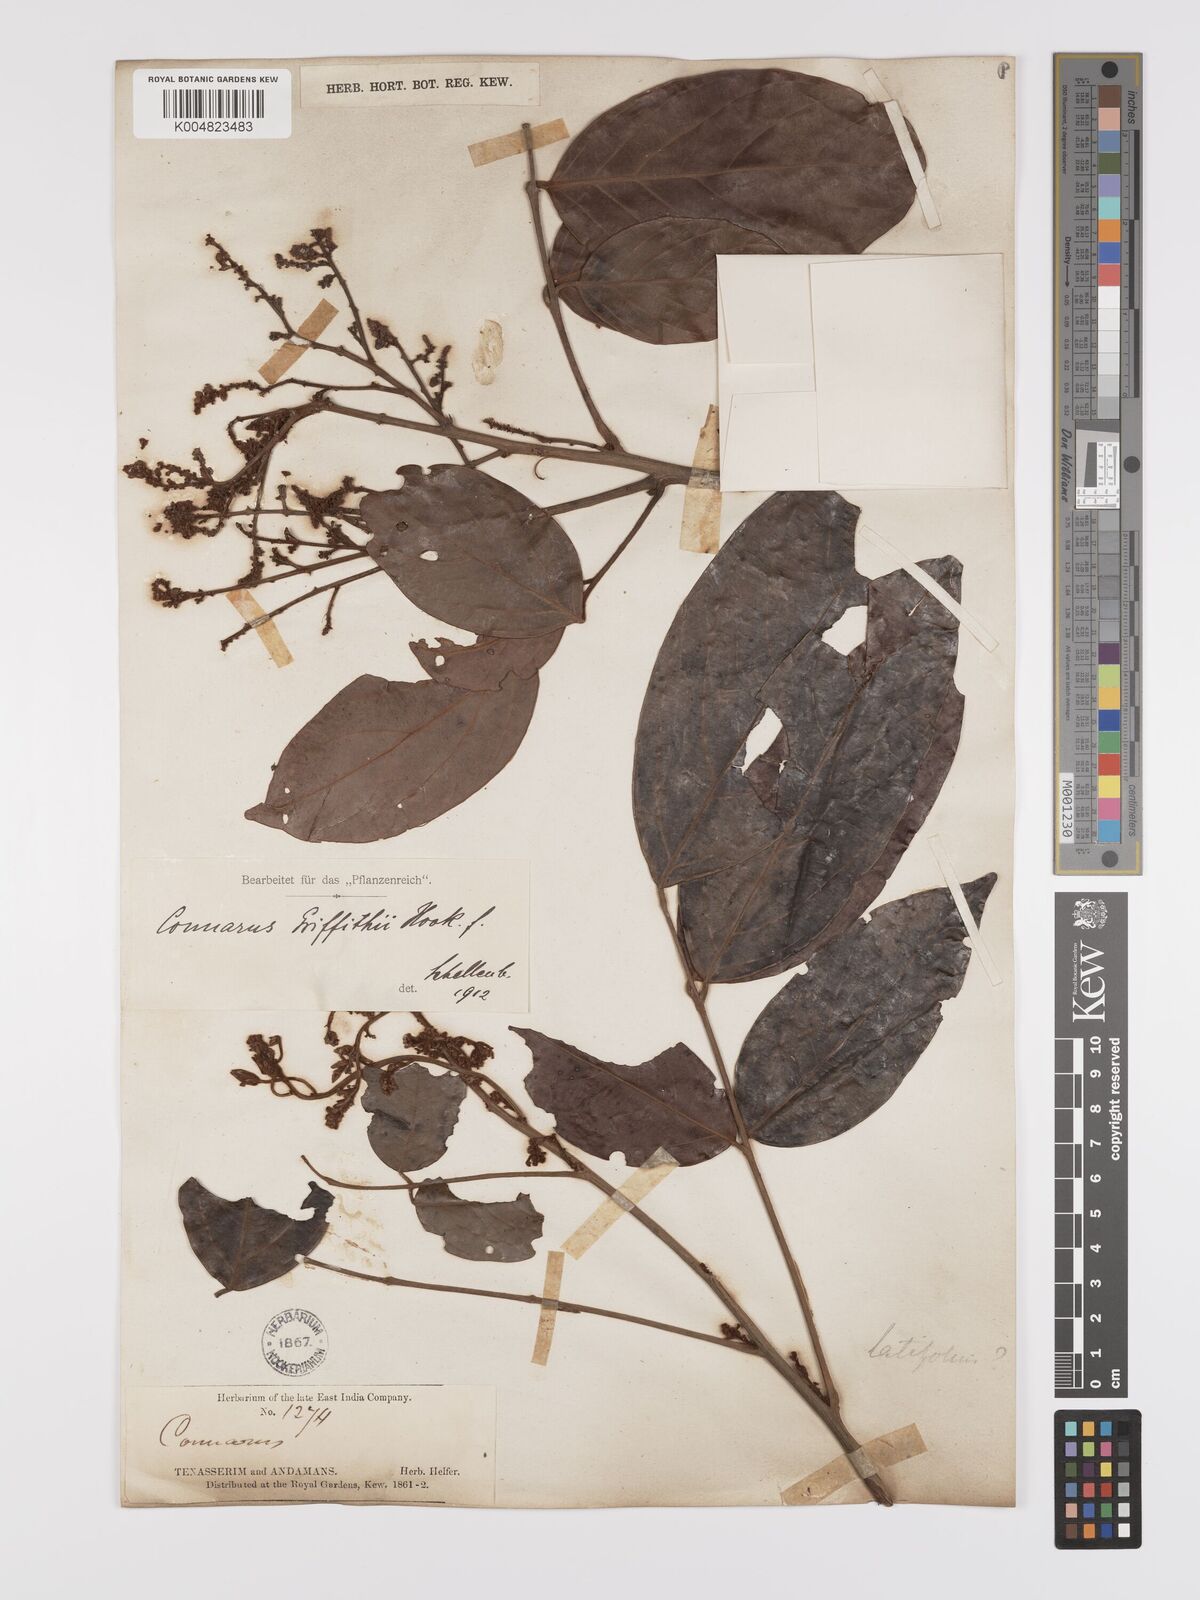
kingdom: Plantae
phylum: Tracheophyta
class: Magnoliopsida
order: Oxalidales
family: Connaraceae
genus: Connarus
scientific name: Connarus semidecandrus
